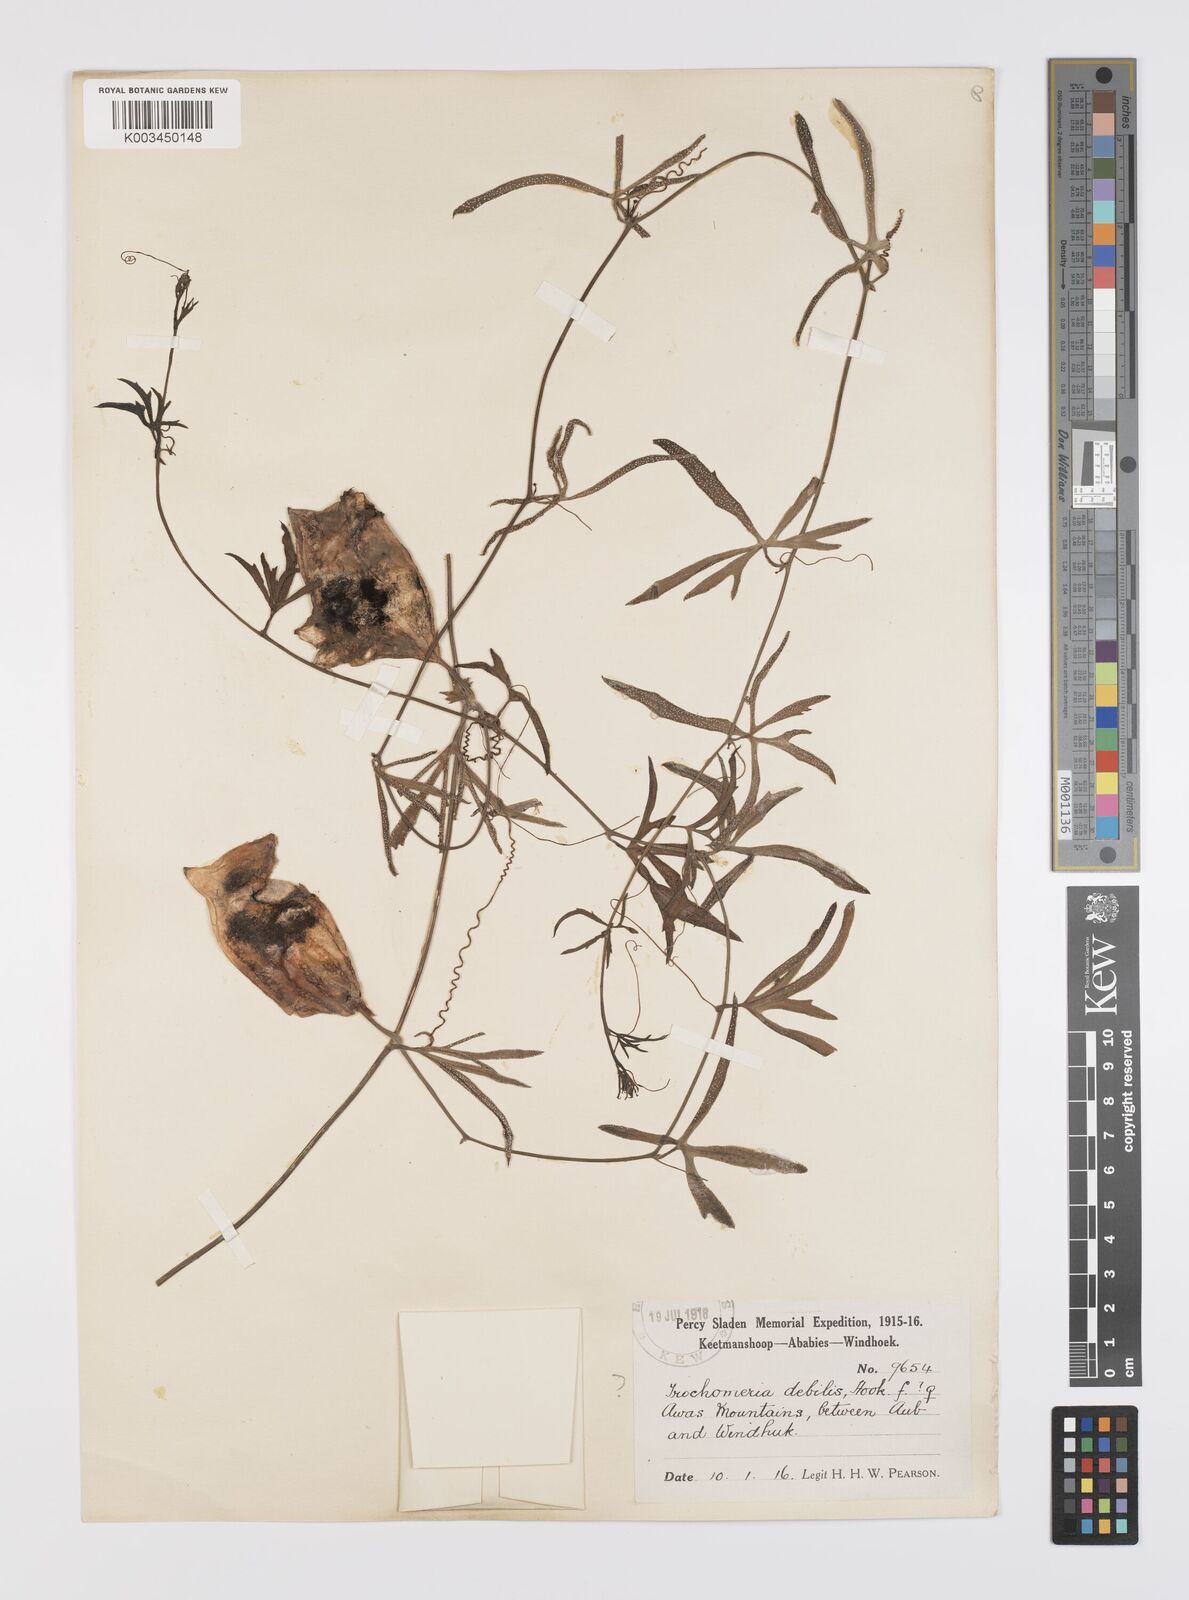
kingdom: Plantae
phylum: Tracheophyta
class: Magnoliopsida
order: Cucurbitales
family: Cucurbitaceae
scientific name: Cucurbitaceae
